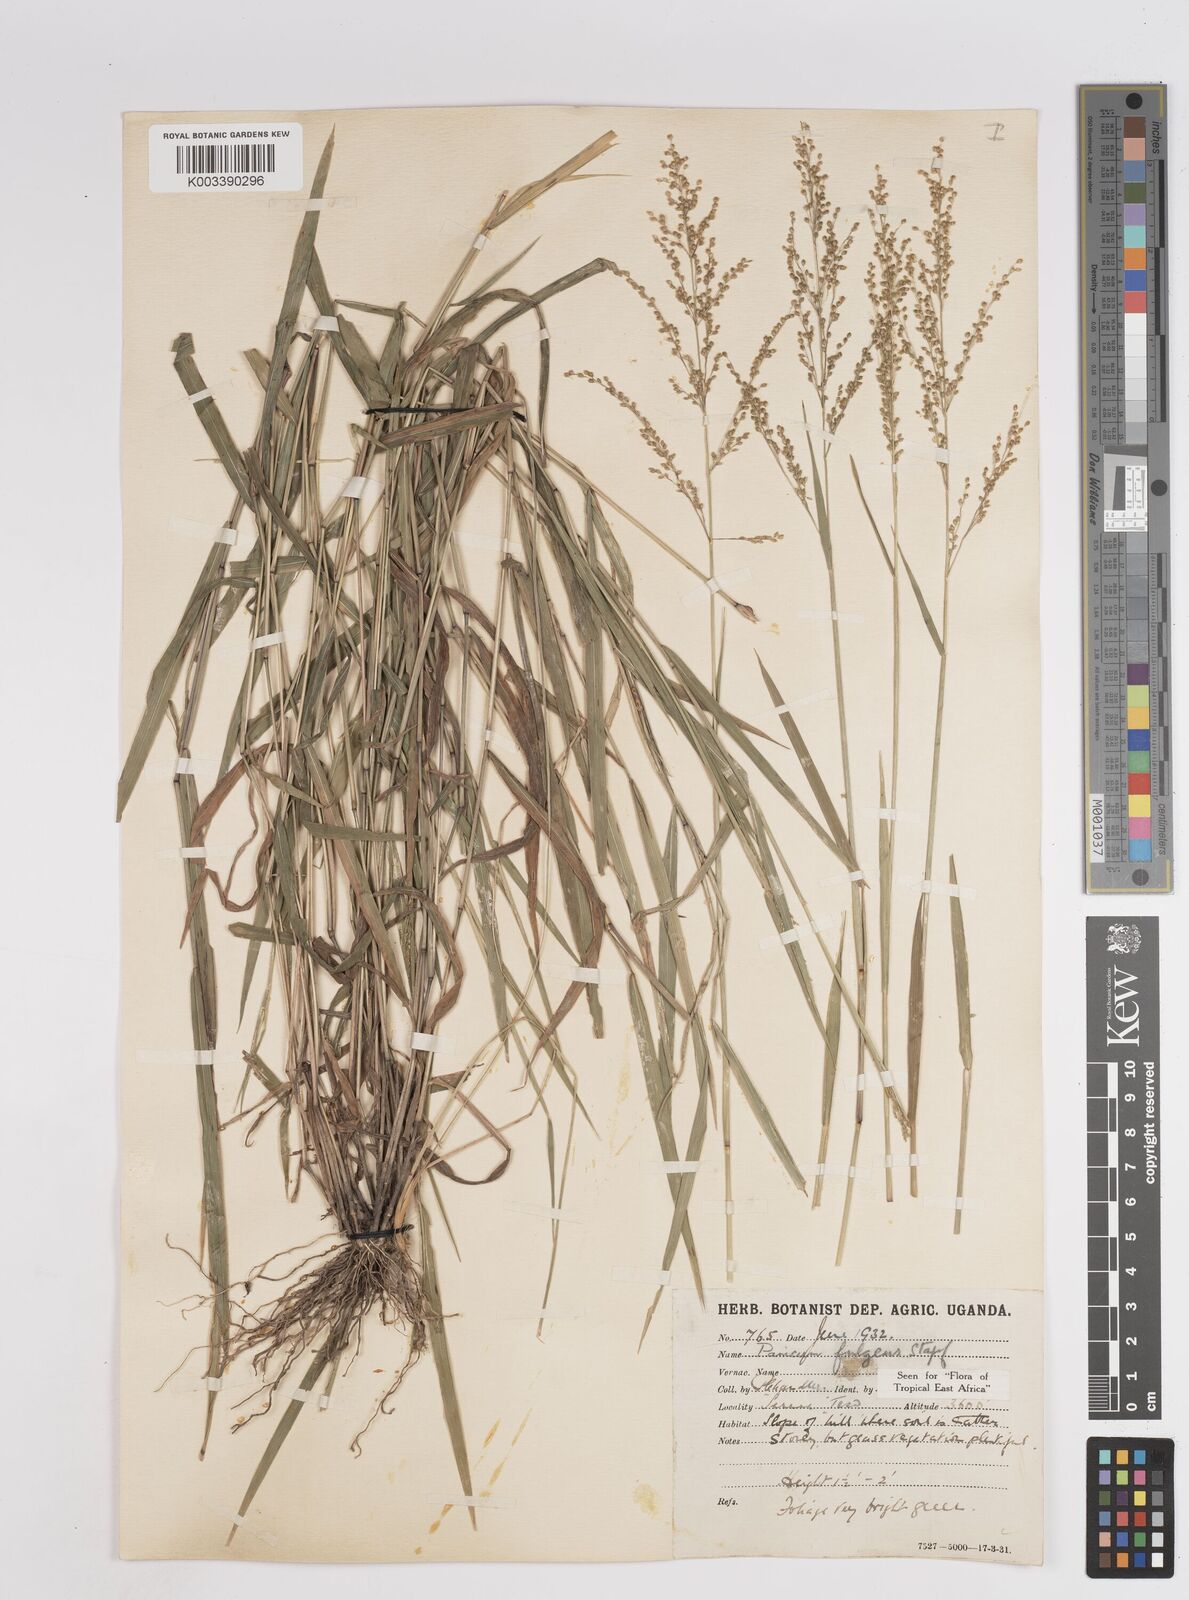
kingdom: Plantae
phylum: Tracheophyta
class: Liliopsida
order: Poales
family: Poaceae
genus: Trichanthecium
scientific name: Trichanthecium nervatum
